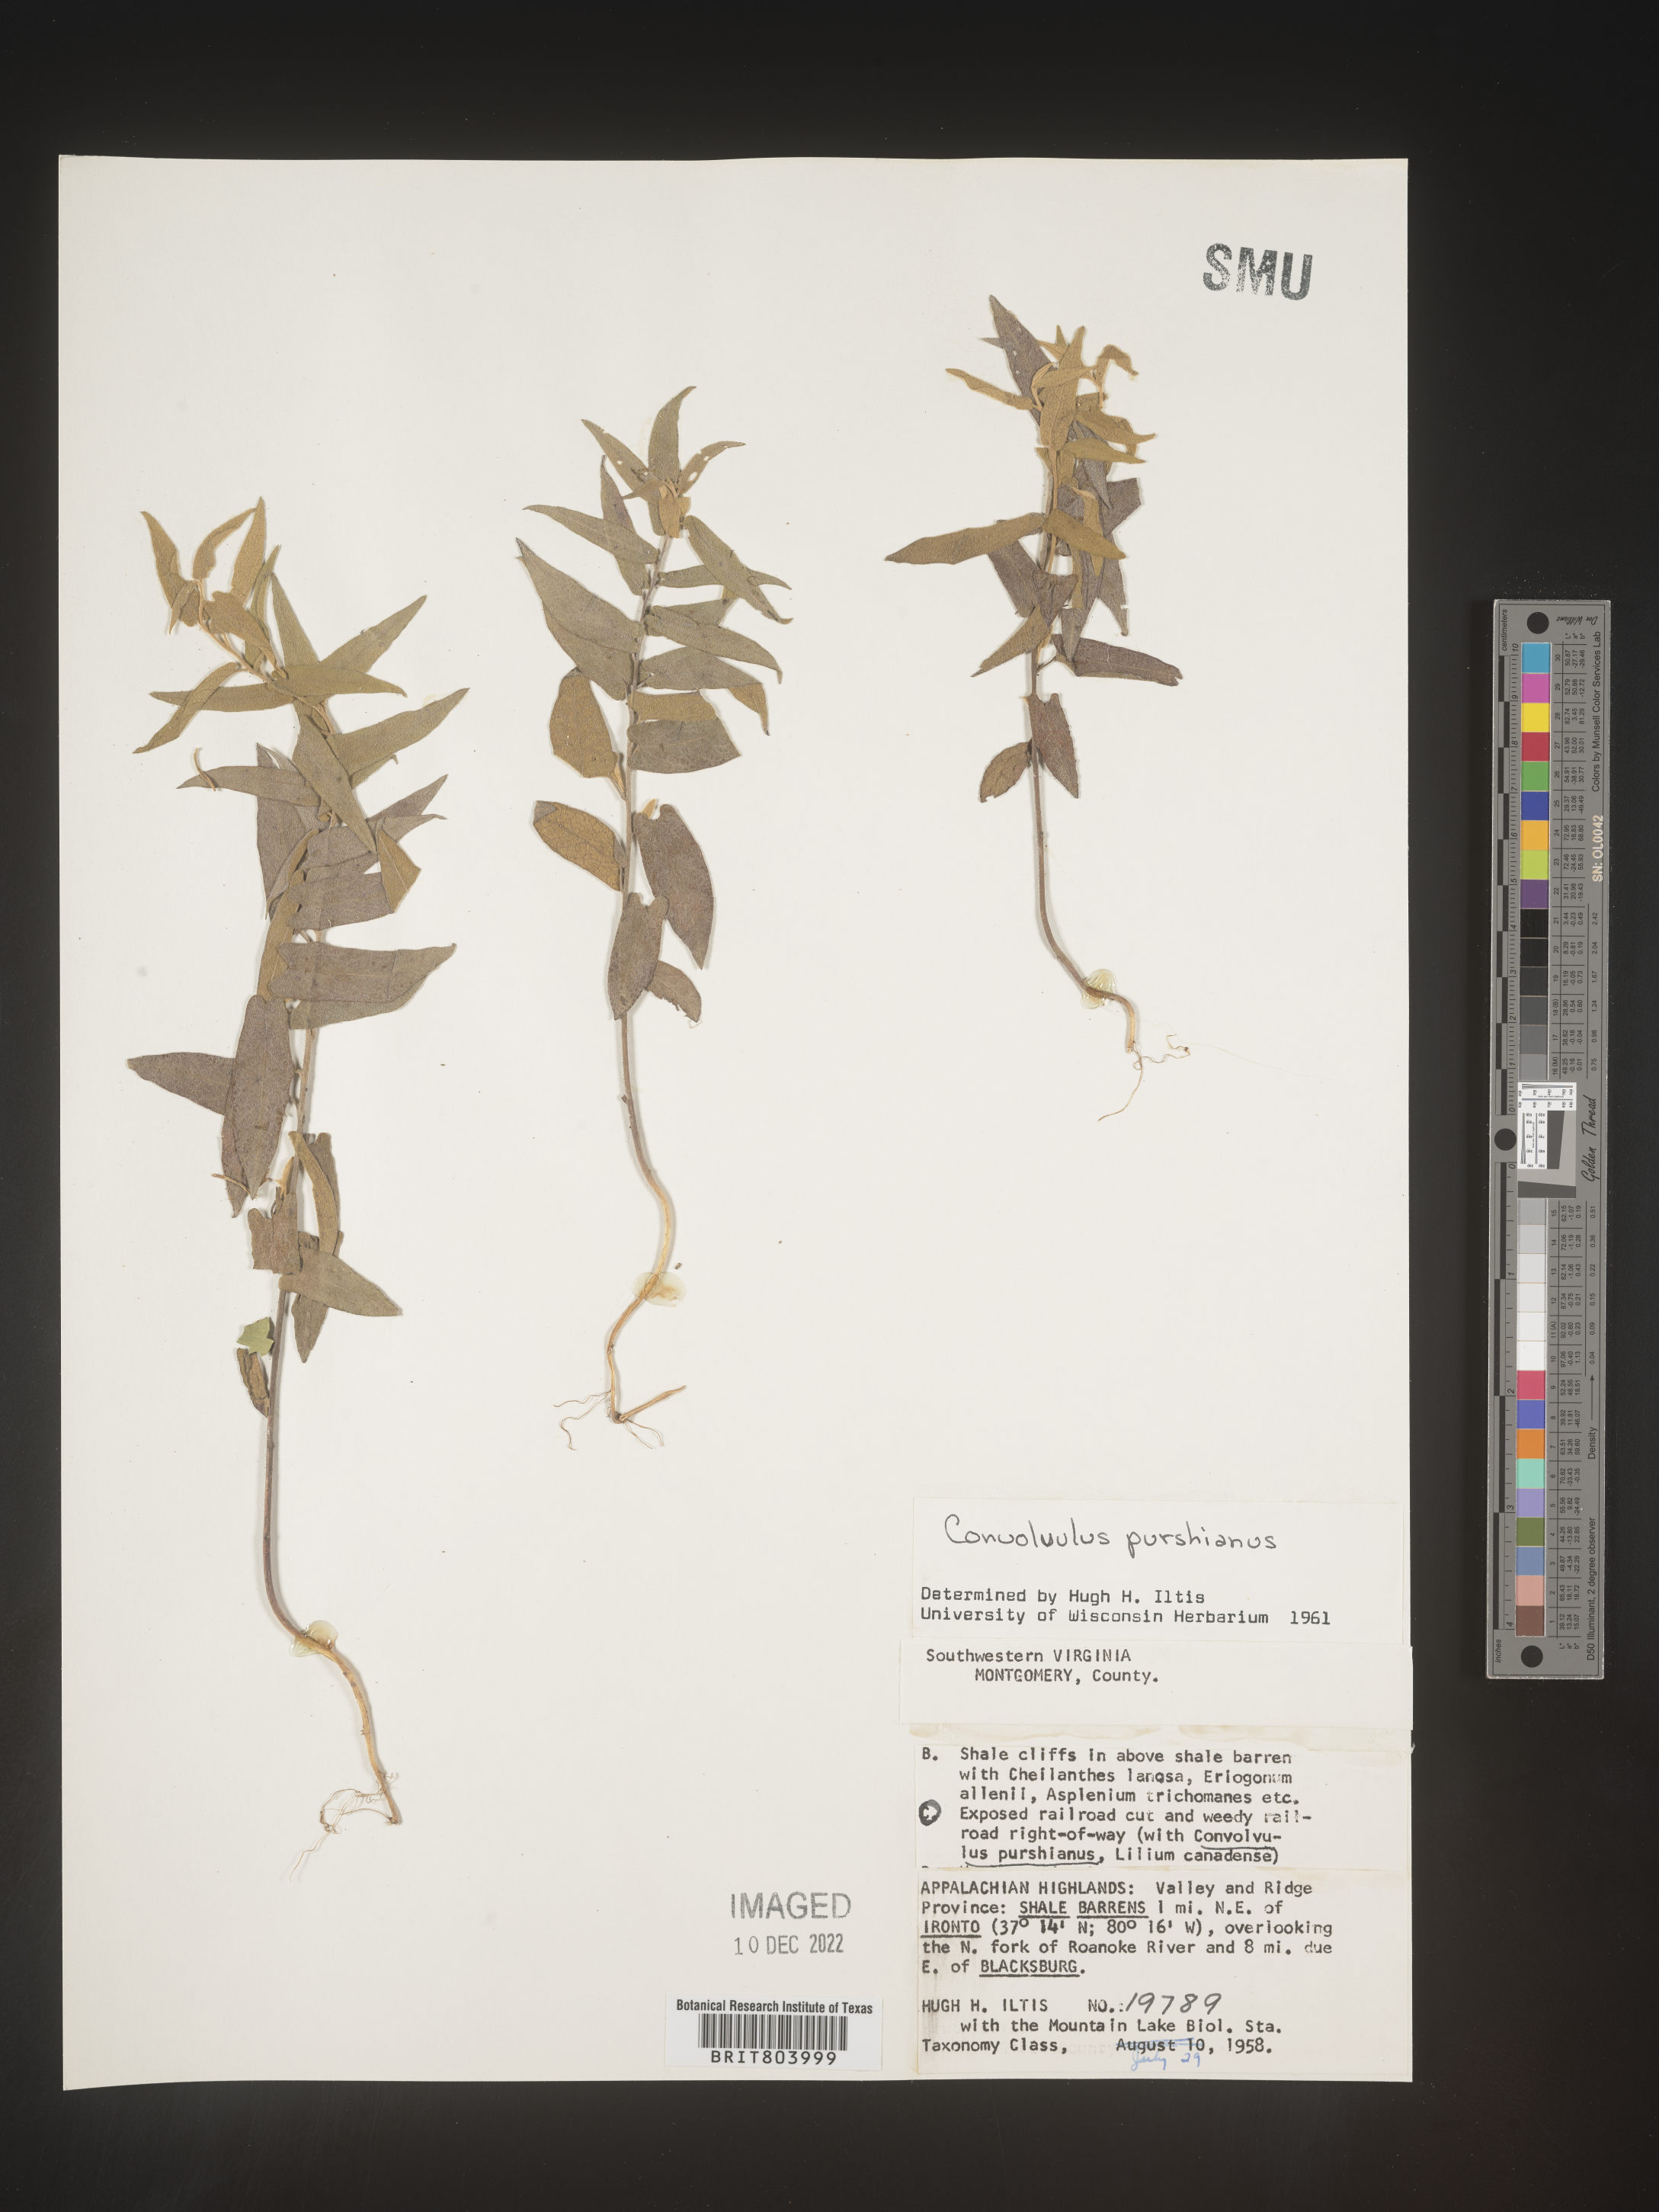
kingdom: Plantae
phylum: Tracheophyta
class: Magnoliopsida
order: Solanales
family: Convolvulaceae
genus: Calystegia
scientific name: Calystegia
